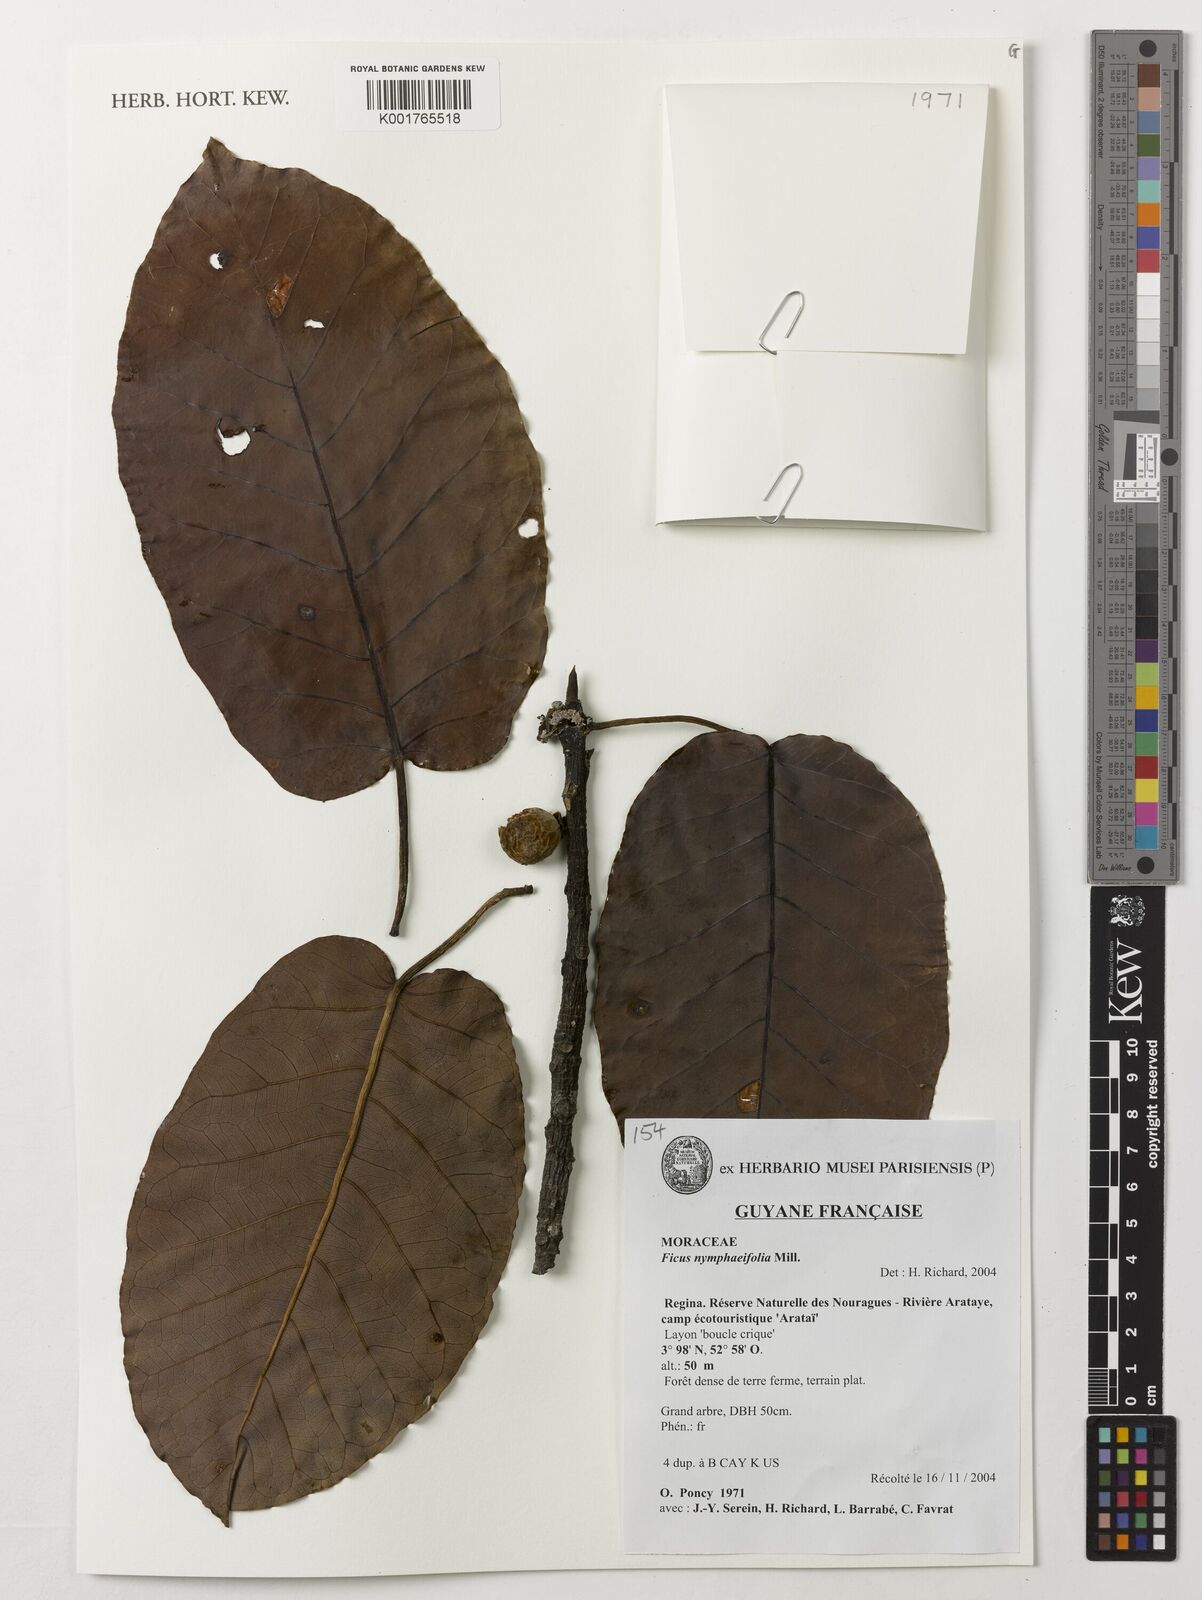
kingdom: Plantae
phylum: Tracheophyta
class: Magnoliopsida
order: Rosales
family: Moraceae
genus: Ficus
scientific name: Ficus nymphaeifolia
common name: Fig
